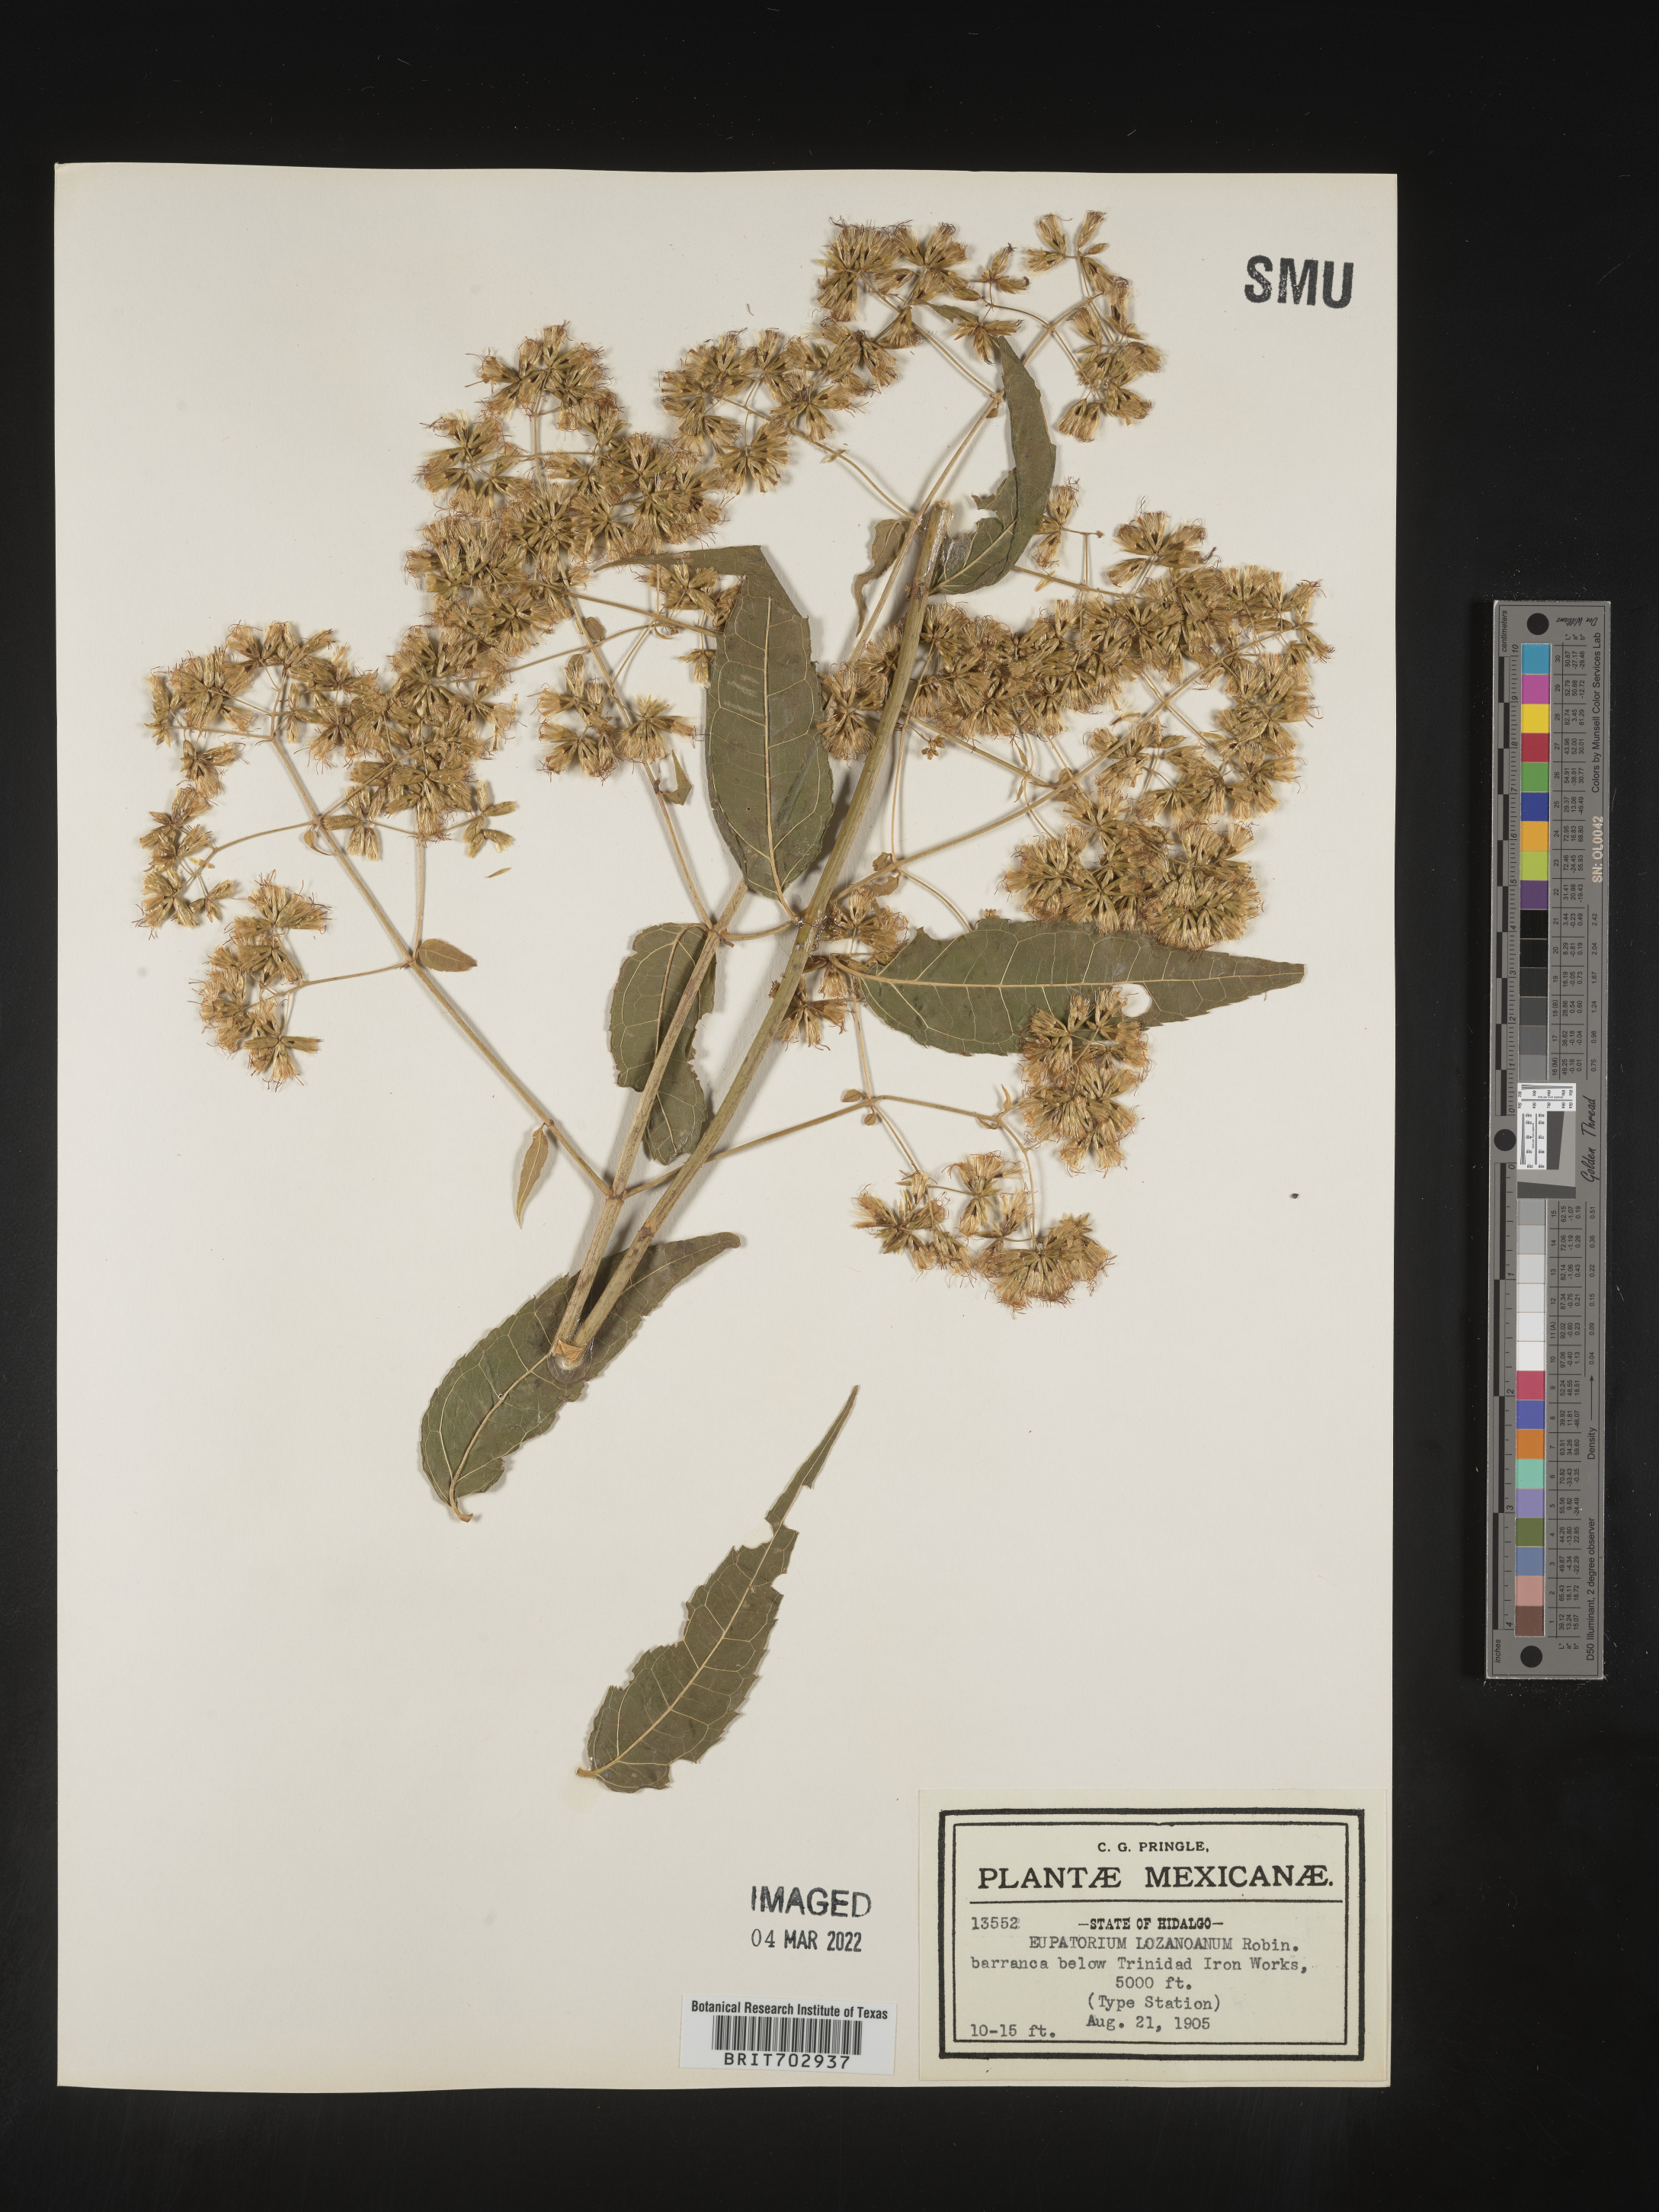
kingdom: Plantae
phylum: Tracheophyta
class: Magnoliopsida
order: Asterales
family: Asteraceae
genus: Eupatorium
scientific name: Eupatorium
